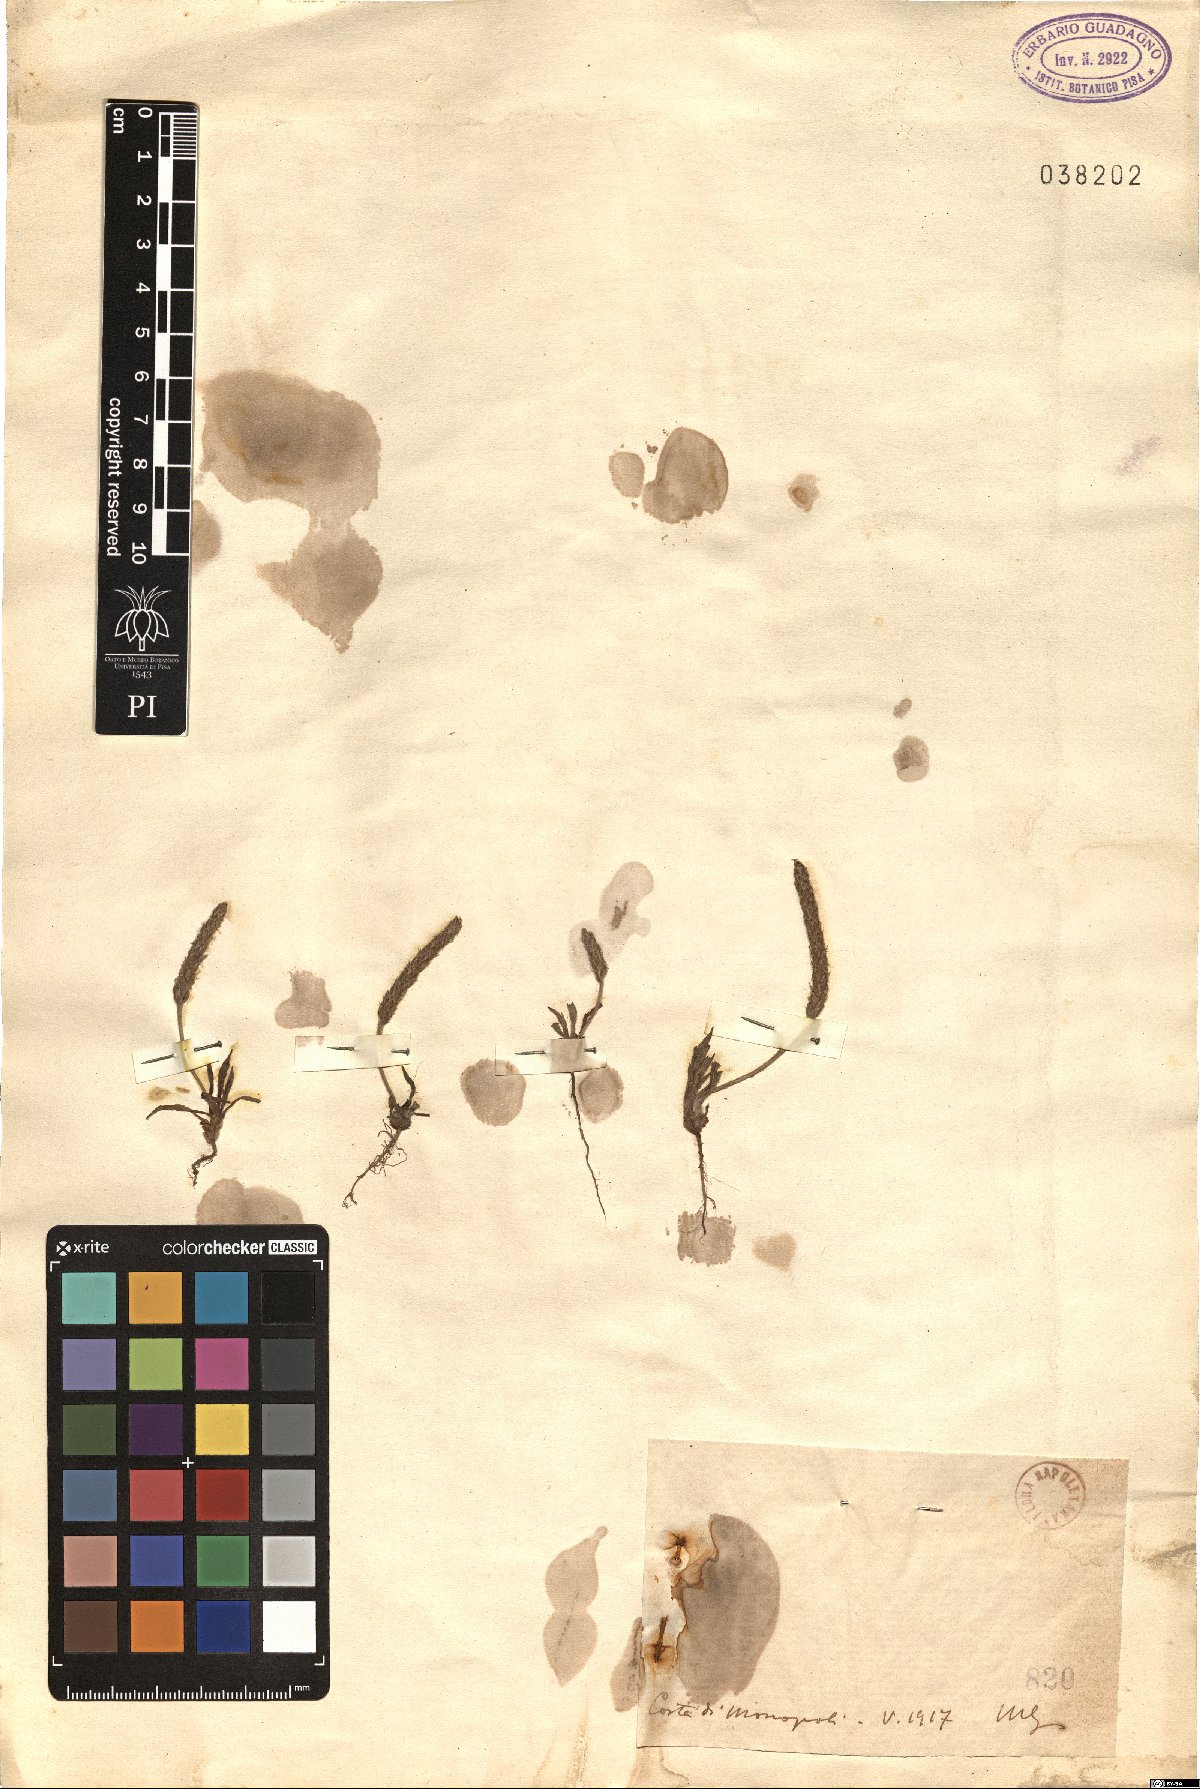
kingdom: Plantae
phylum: Tracheophyta
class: Magnoliopsida
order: Lamiales
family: Plantaginaceae
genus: Plantago
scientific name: Plantago
